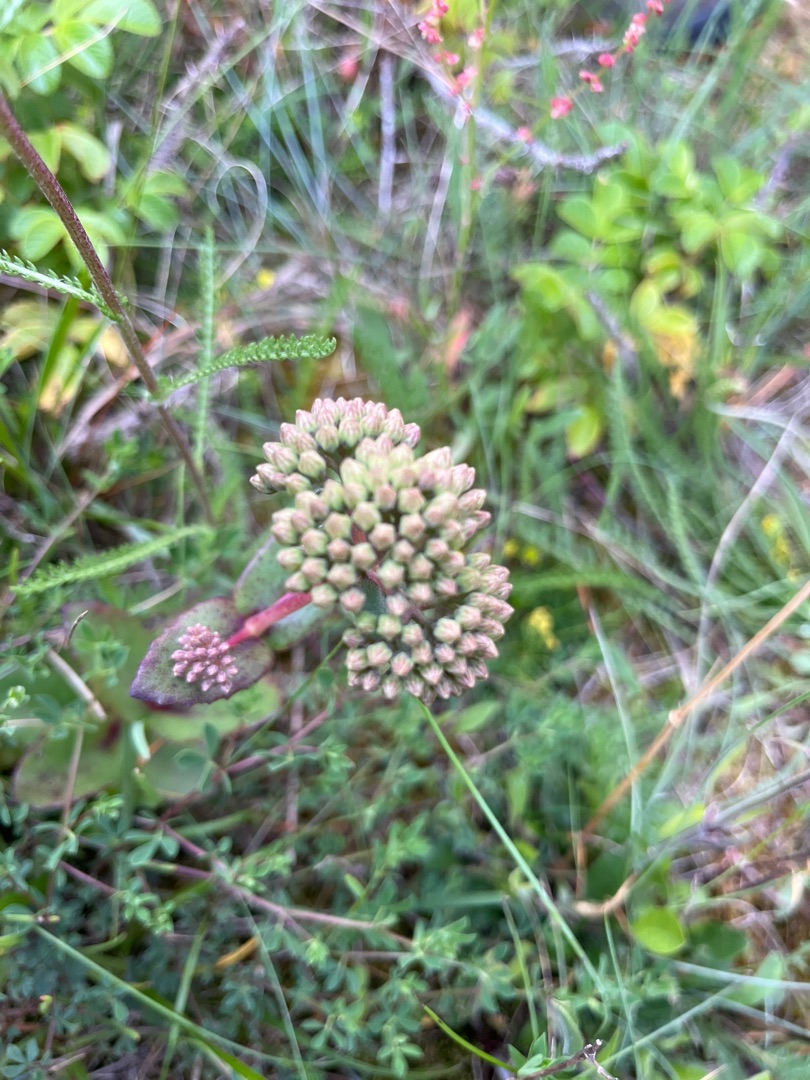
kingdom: Plantae
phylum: Tracheophyta
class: Magnoliopsida
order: Saxifragales
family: Crassulaceae
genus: Hylotelephium
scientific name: Hylotelephium maximum
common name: Almindelig sankthansurt
